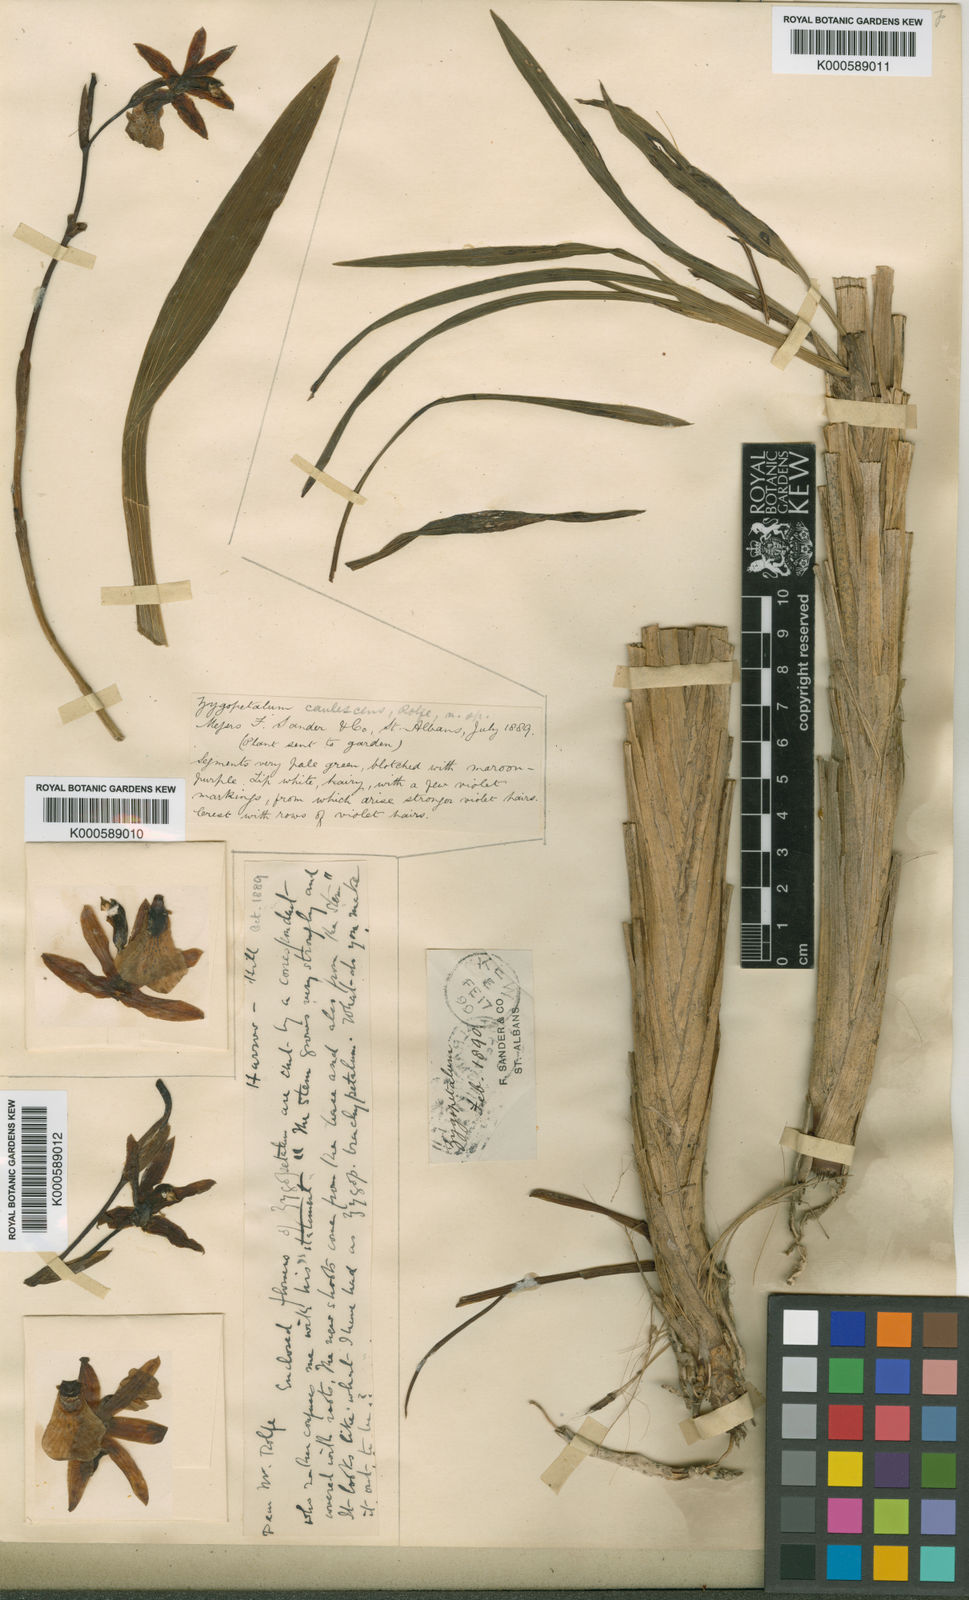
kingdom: Plantae
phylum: Tracheophyta
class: Liliopsida
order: Asparagales
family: Orchidaceae
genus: Zygopetalum
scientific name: Zygopetalum mosenianum
